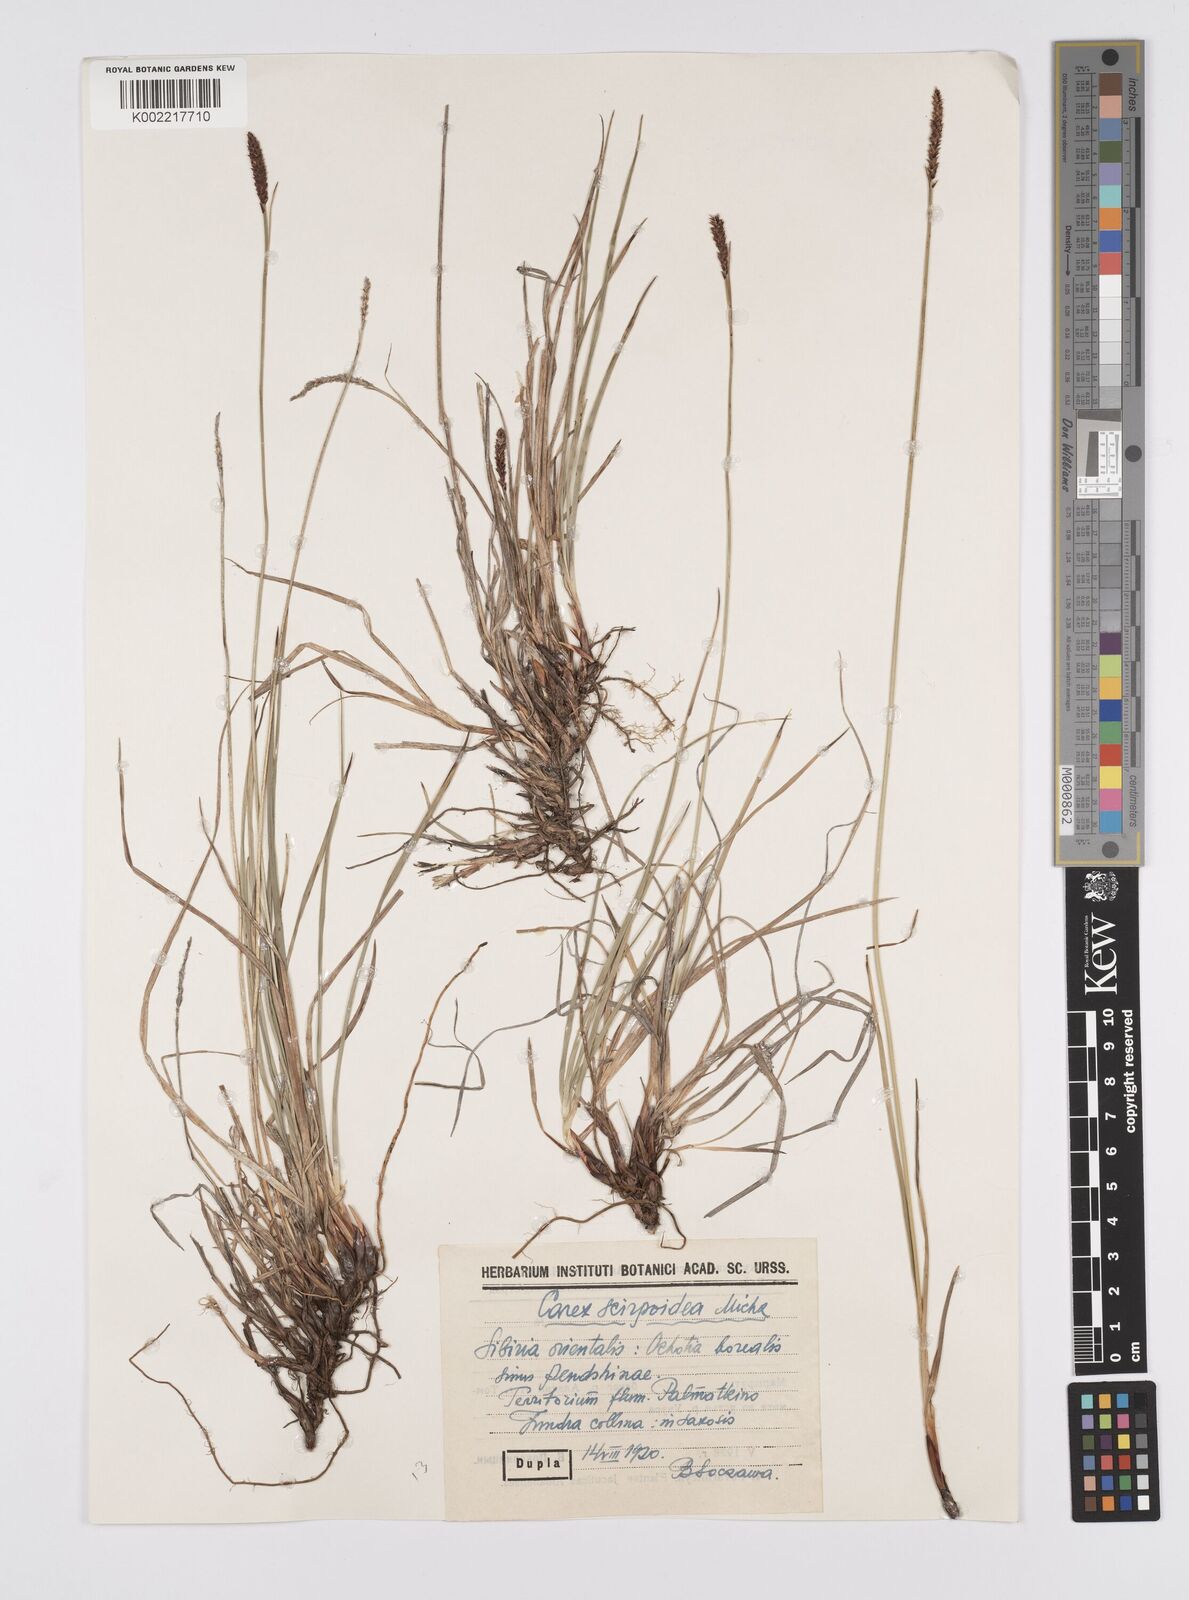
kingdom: Plantae
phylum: Tracheophyta
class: Liliopsida
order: Poales
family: Cyperaceae
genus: Carex
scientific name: Carex scirpoidea
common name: Canada single-spike sedge
